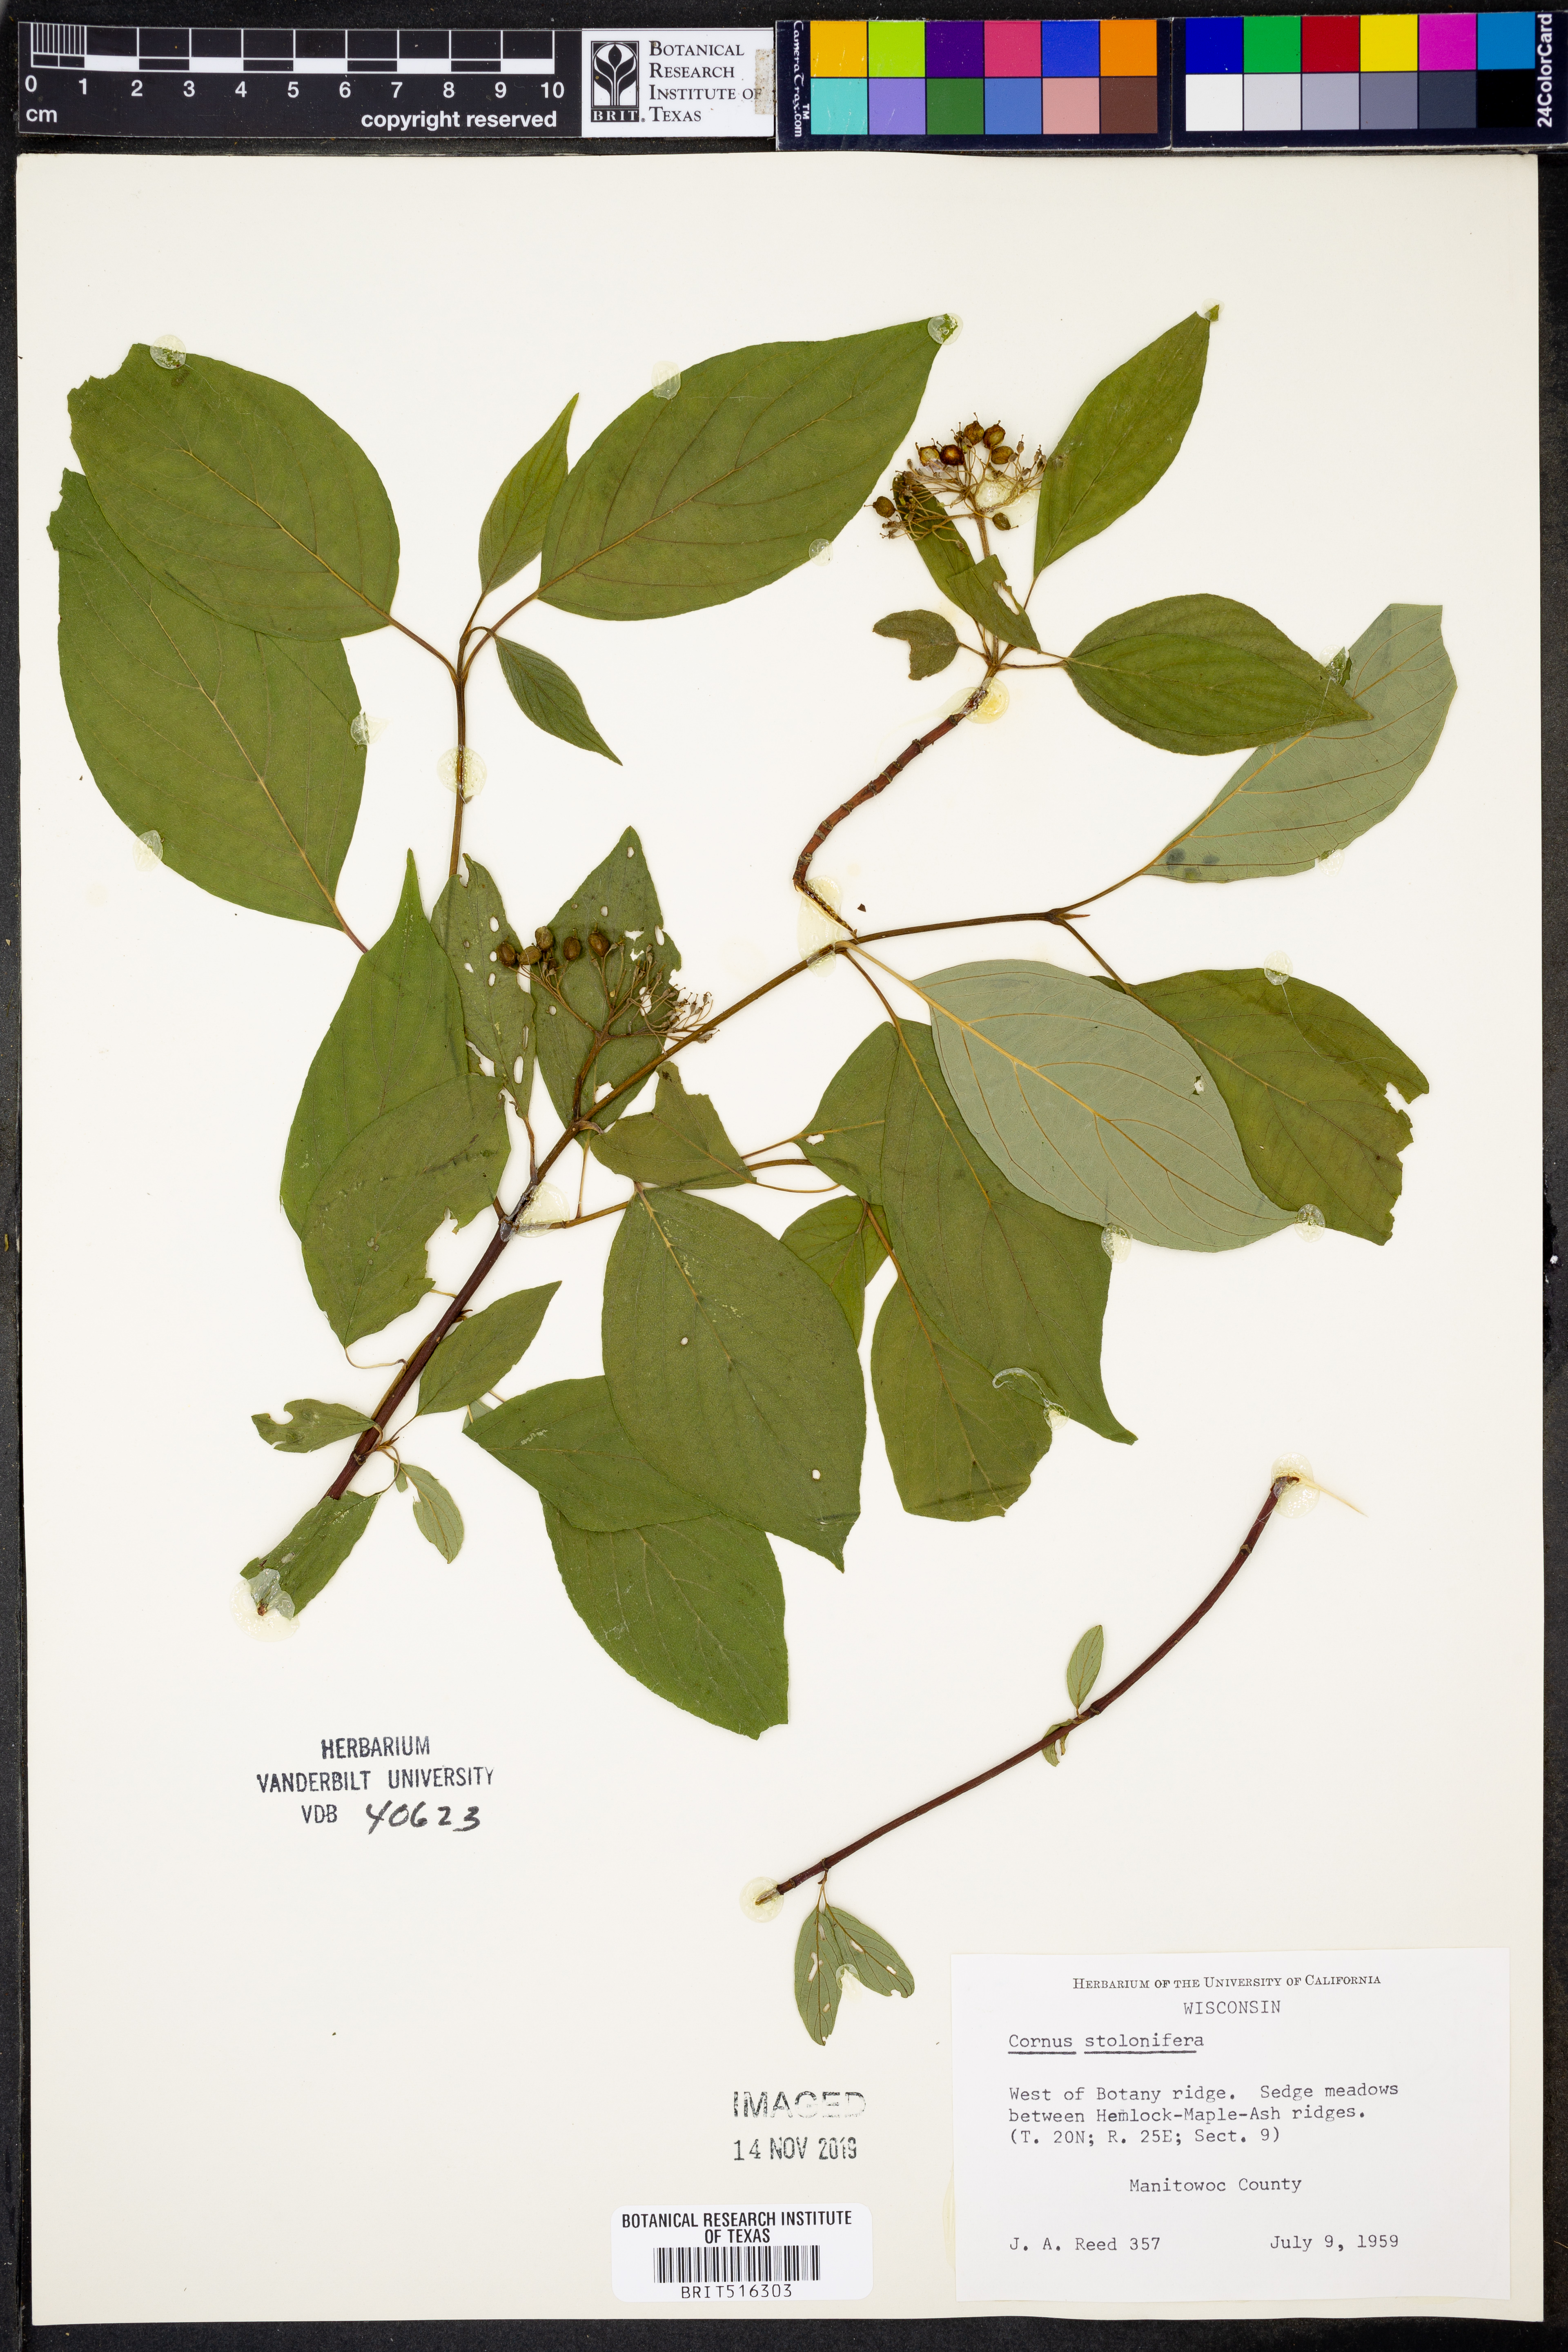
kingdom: Plantae
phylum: Tracheophyta
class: Magnoliopsida
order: Cornales
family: Cornaceae
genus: Cornus
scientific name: Cornus sericea
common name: Red-osier dogwood
